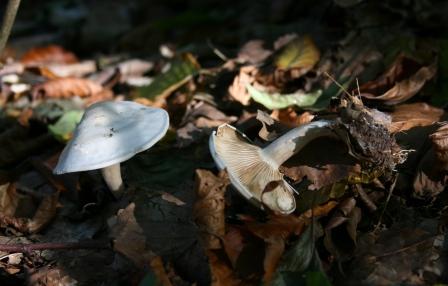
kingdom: Fungi
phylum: Basidiomycota
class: Agaricomycetes
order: Agaricales
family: Tricholomataceae
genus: Clitocybe
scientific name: Clitocybe phyllophila
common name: løv-tragthat
